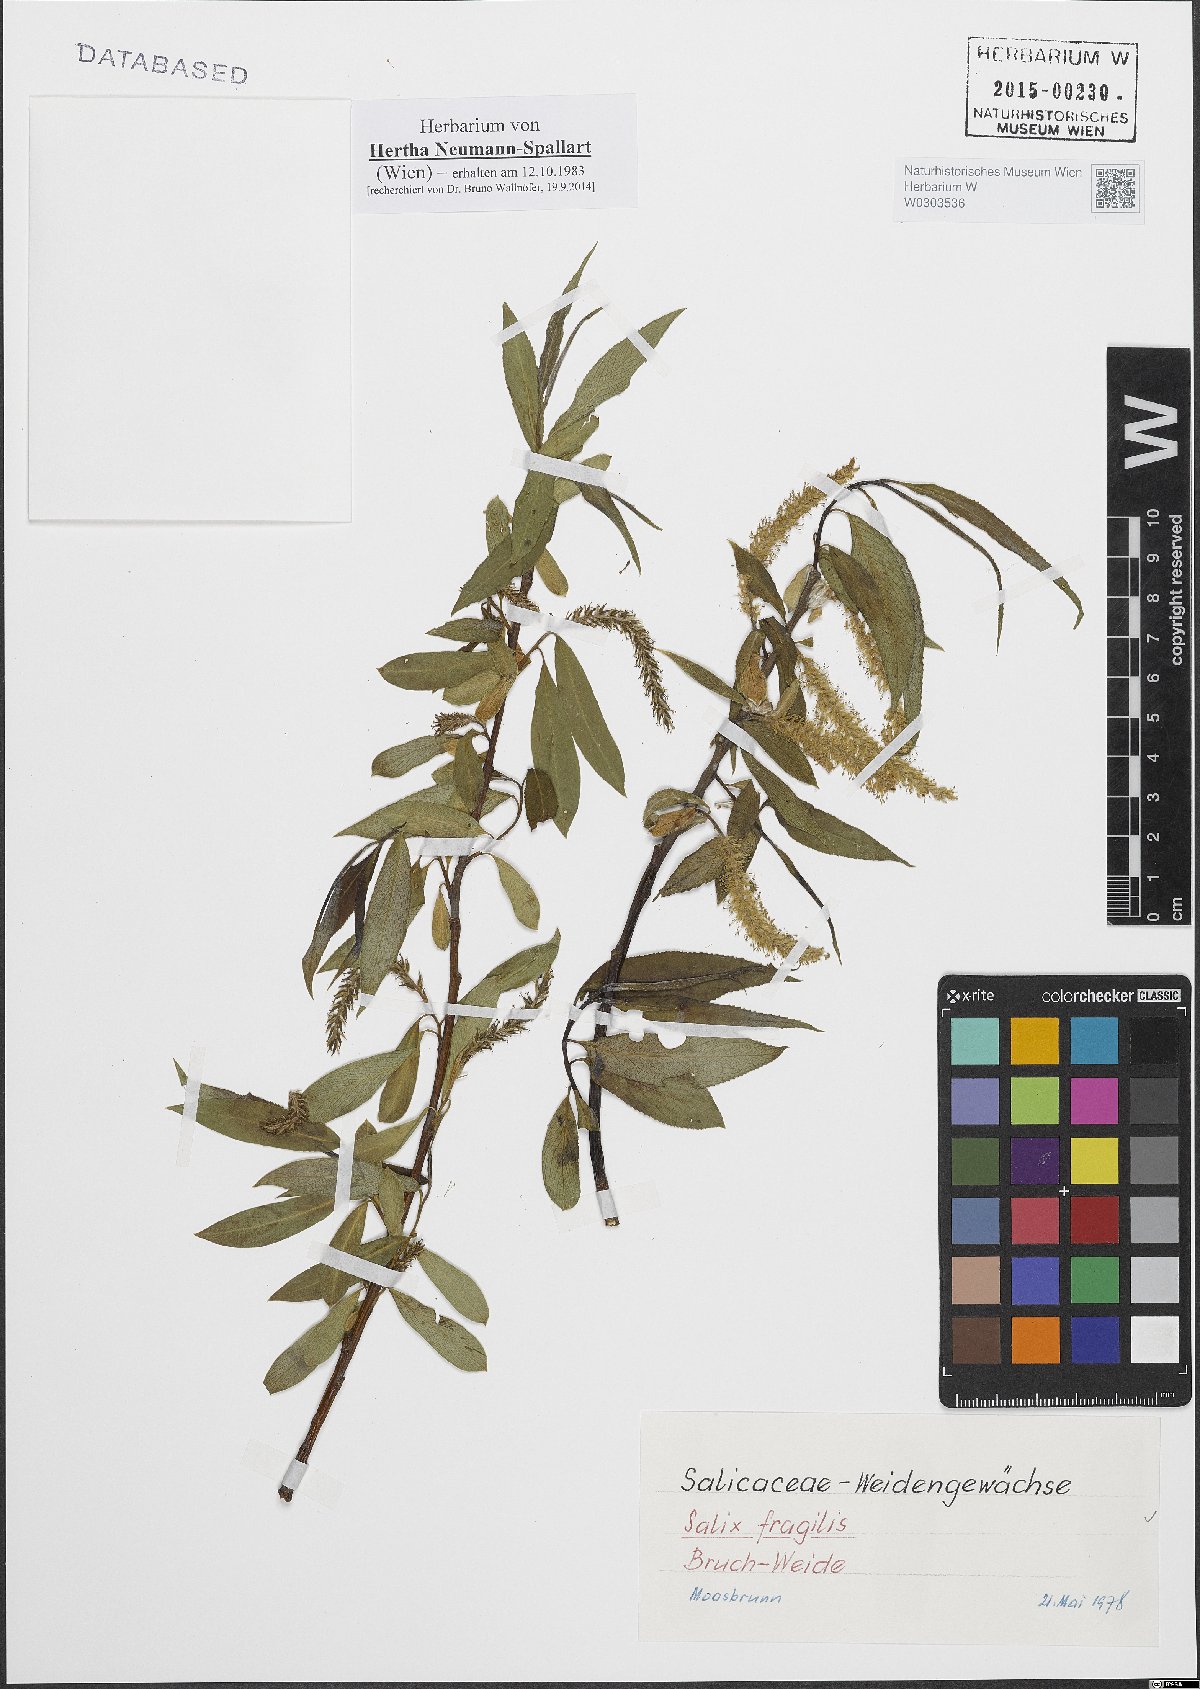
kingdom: Plantae
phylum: Tracheophyta
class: Magnoliopsida
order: Malpighiales
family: Salicaceae
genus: Salix
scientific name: Salix fragilis
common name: Crack willow
